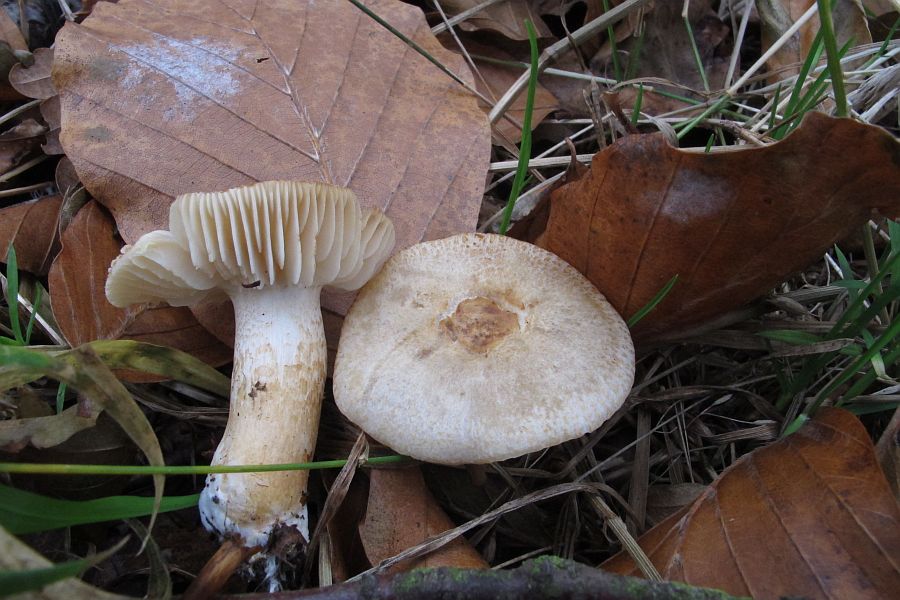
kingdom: Fungi
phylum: Basidiomycota
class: Agaricomycetes
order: Agaricales
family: Tricholomataceae
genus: Tricholoma
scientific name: Tricholoma psammopus
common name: grynstokket ridderhat
